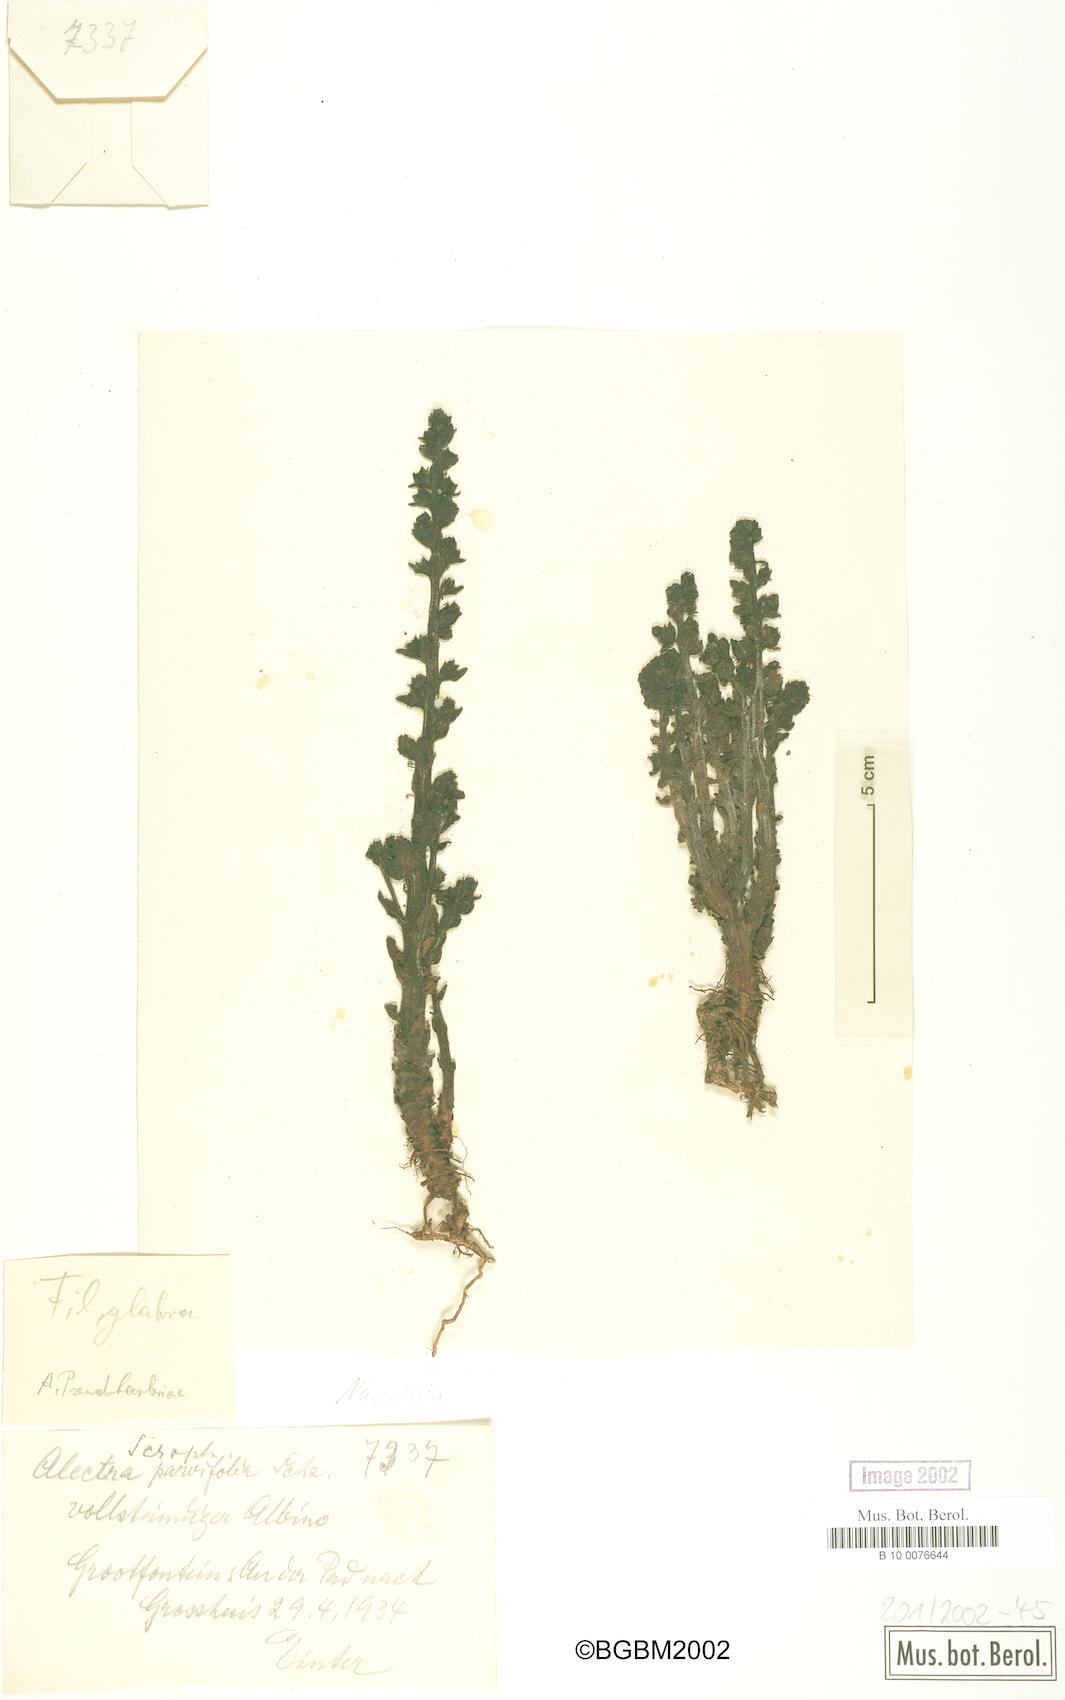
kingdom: Plantae
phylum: Tracheophyta
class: Magnoliopsida
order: Lamiales
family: Orobanchaceae
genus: Alectra
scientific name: Alectra pseudobarleriae
